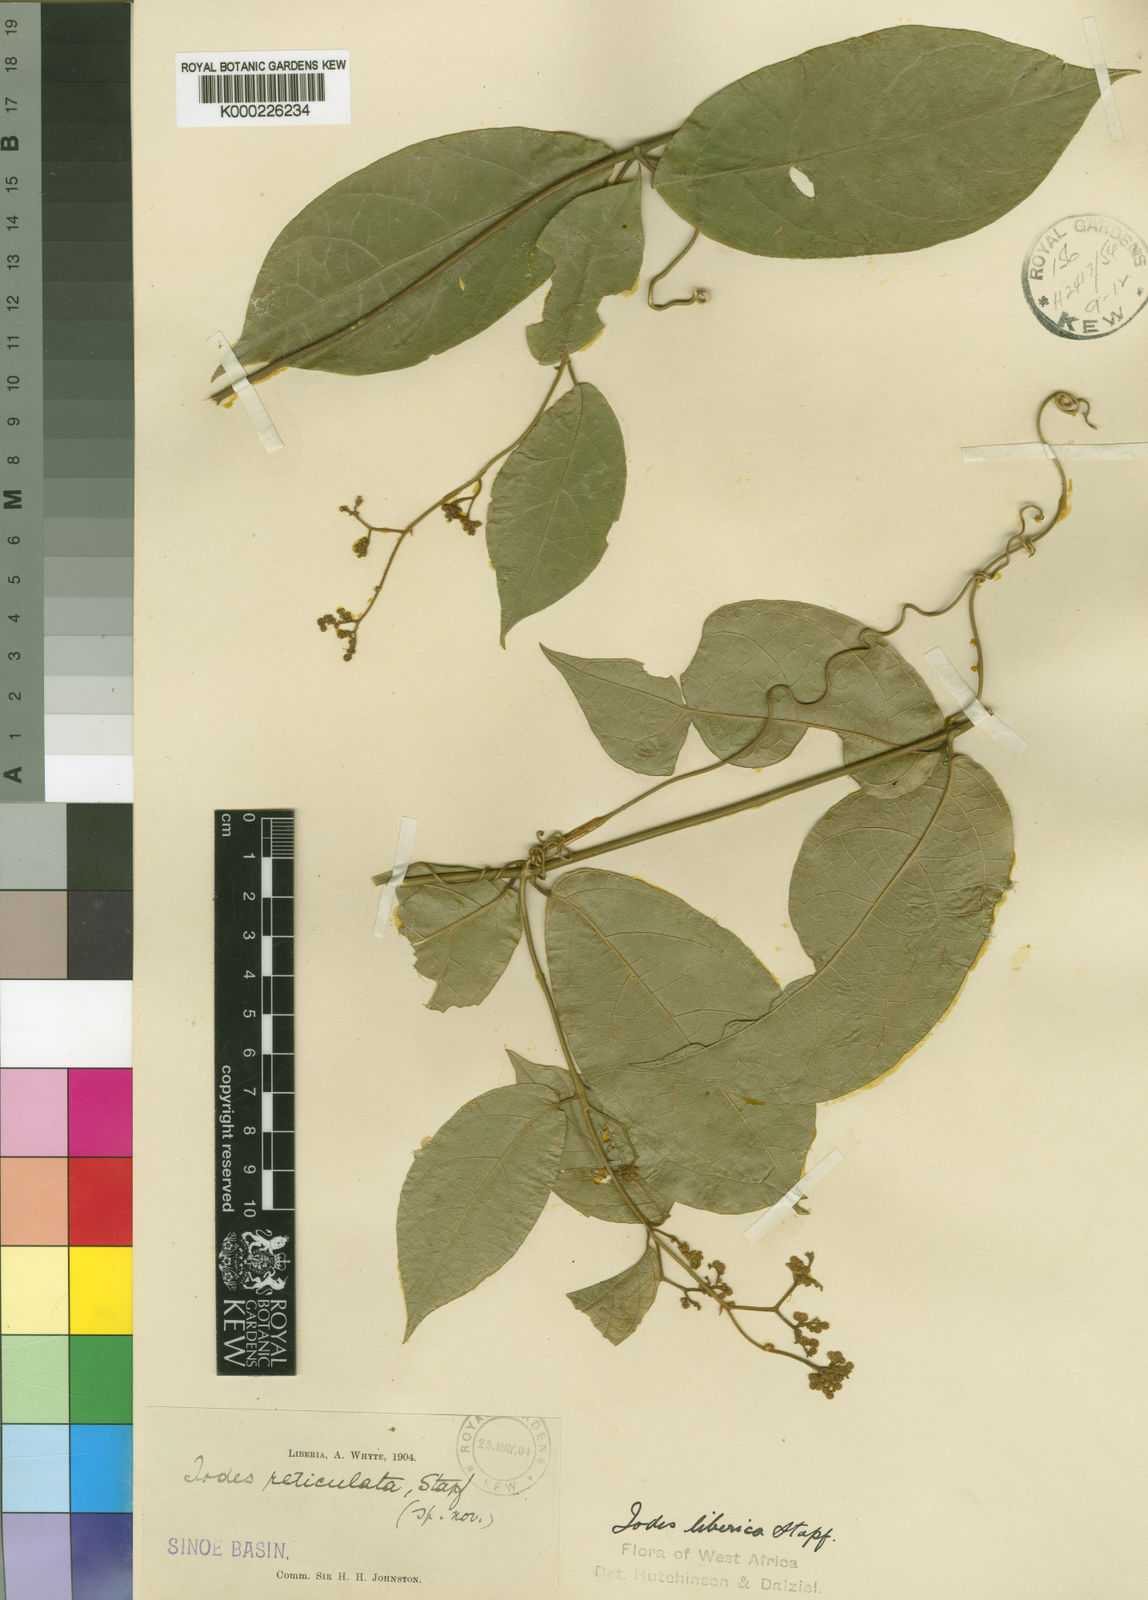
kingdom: Plantae
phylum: Tracheophyta
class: Magnoliopsida
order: Icacinales
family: Icacinaceae
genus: Iodes
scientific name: Iodes liberica
